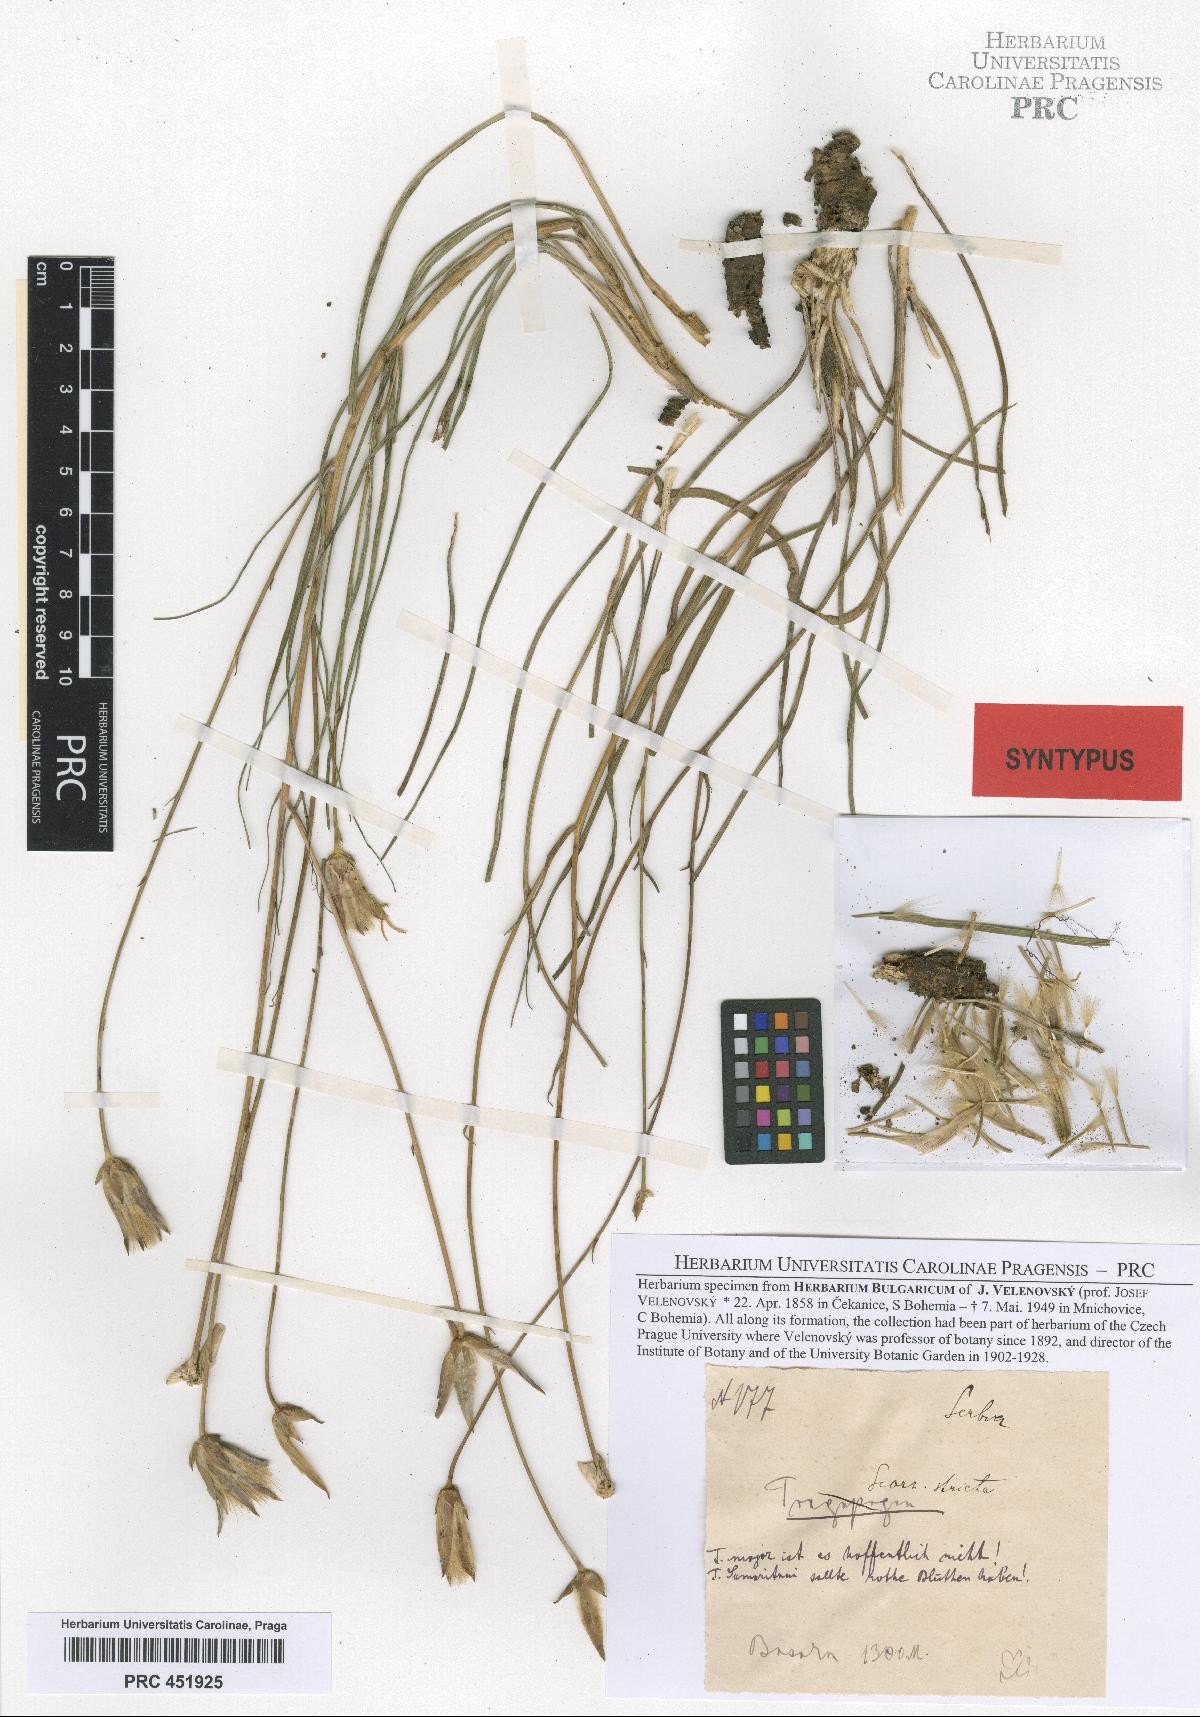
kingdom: Plantae
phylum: Tracheophyta
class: Magnoliopsida
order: Asterales
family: Asteraceae
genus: Pseudopodospermum
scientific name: Pseudopodospermum hispanicum
